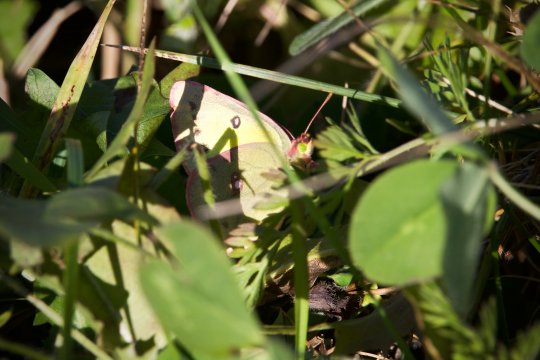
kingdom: Animalia
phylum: Arthropoda
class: Insecta
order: Lepidoptera
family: Pieridae
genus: Colias
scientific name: Colias philodice
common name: Clouded Sulphur
